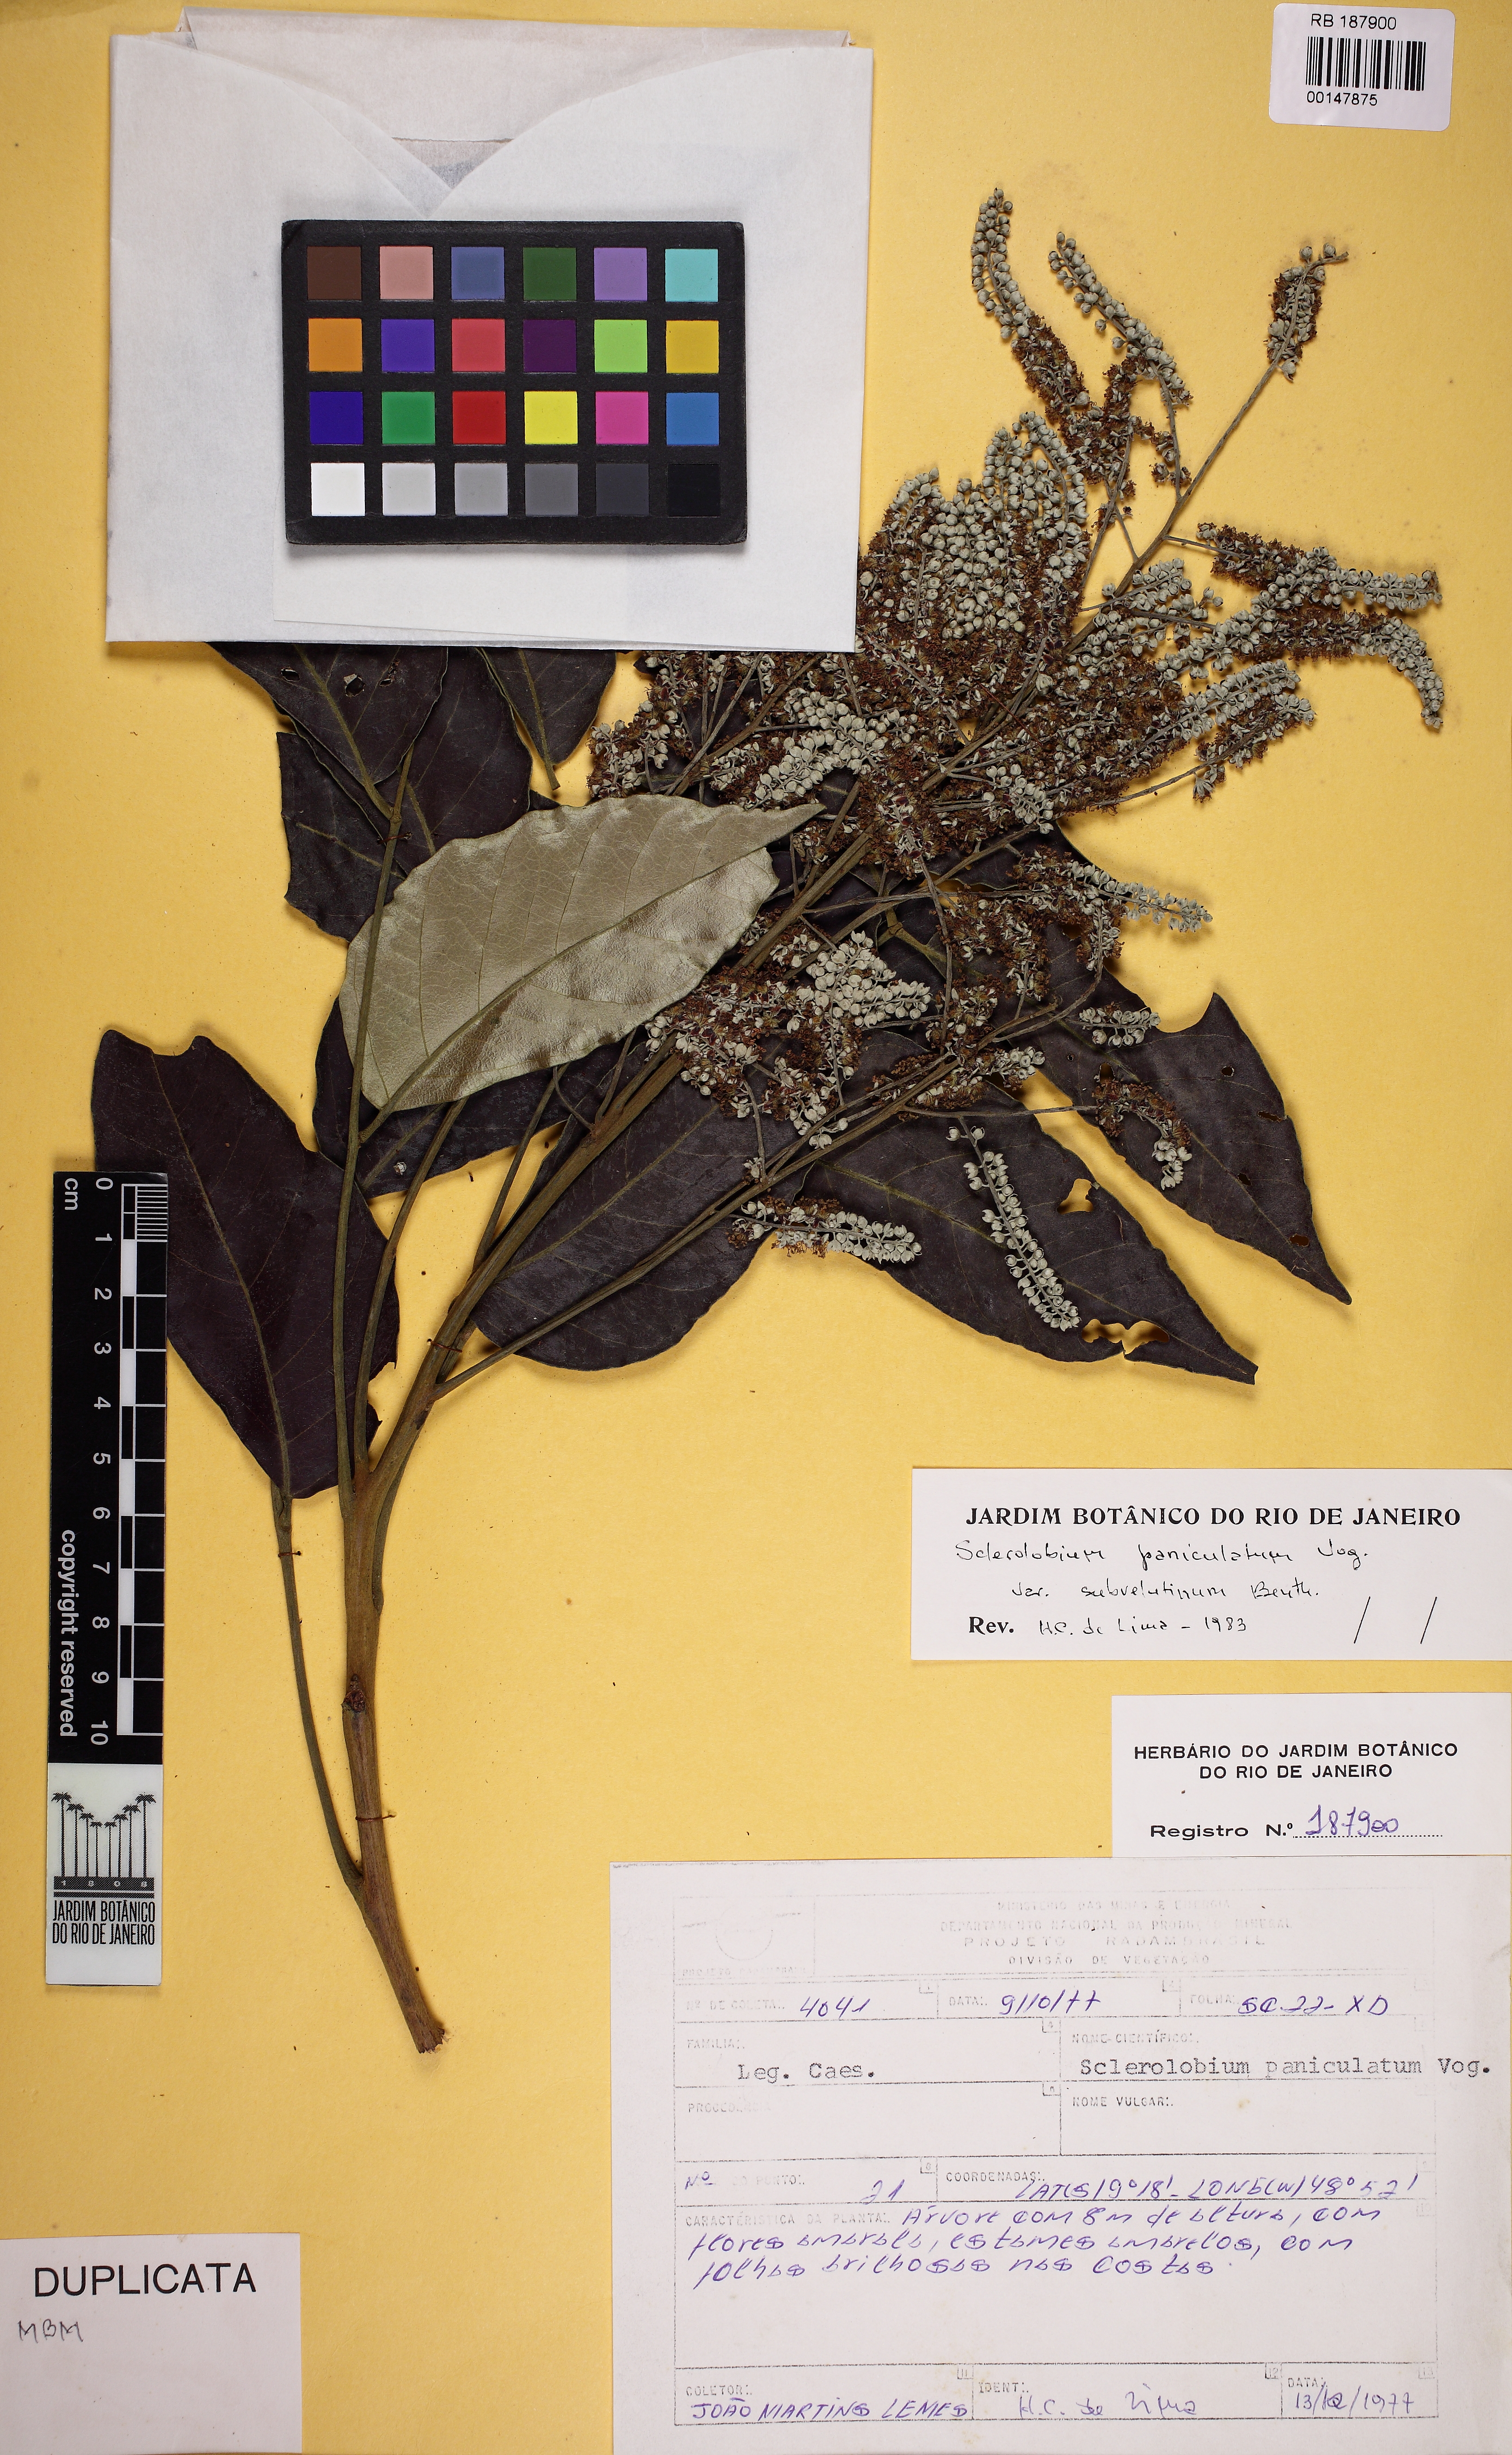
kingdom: Plantae
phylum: Tracheophyta
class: Magnoliopsida
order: Fabales
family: Fabaceae
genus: Tachigali
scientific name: Tachigali vulgaris
